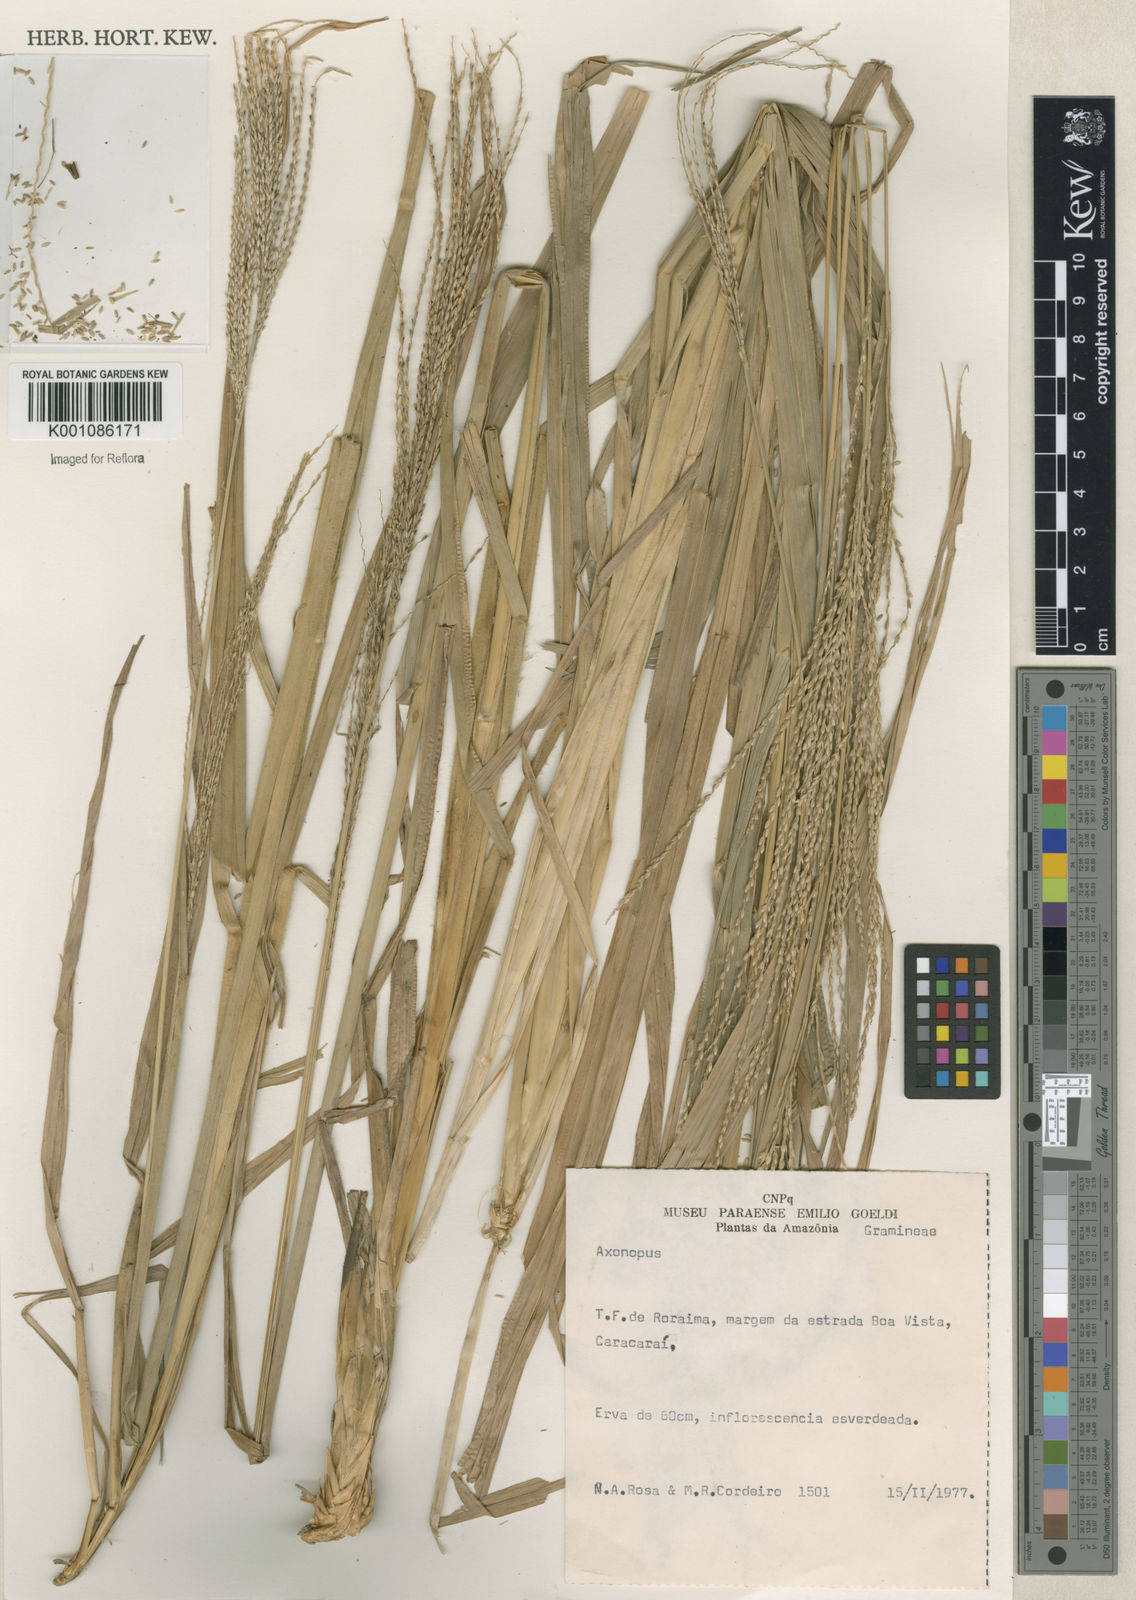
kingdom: Plantae
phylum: Tracheophyta
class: Liliopsida
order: Poales
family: Poaceae
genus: Axonopus
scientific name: Axonopus
